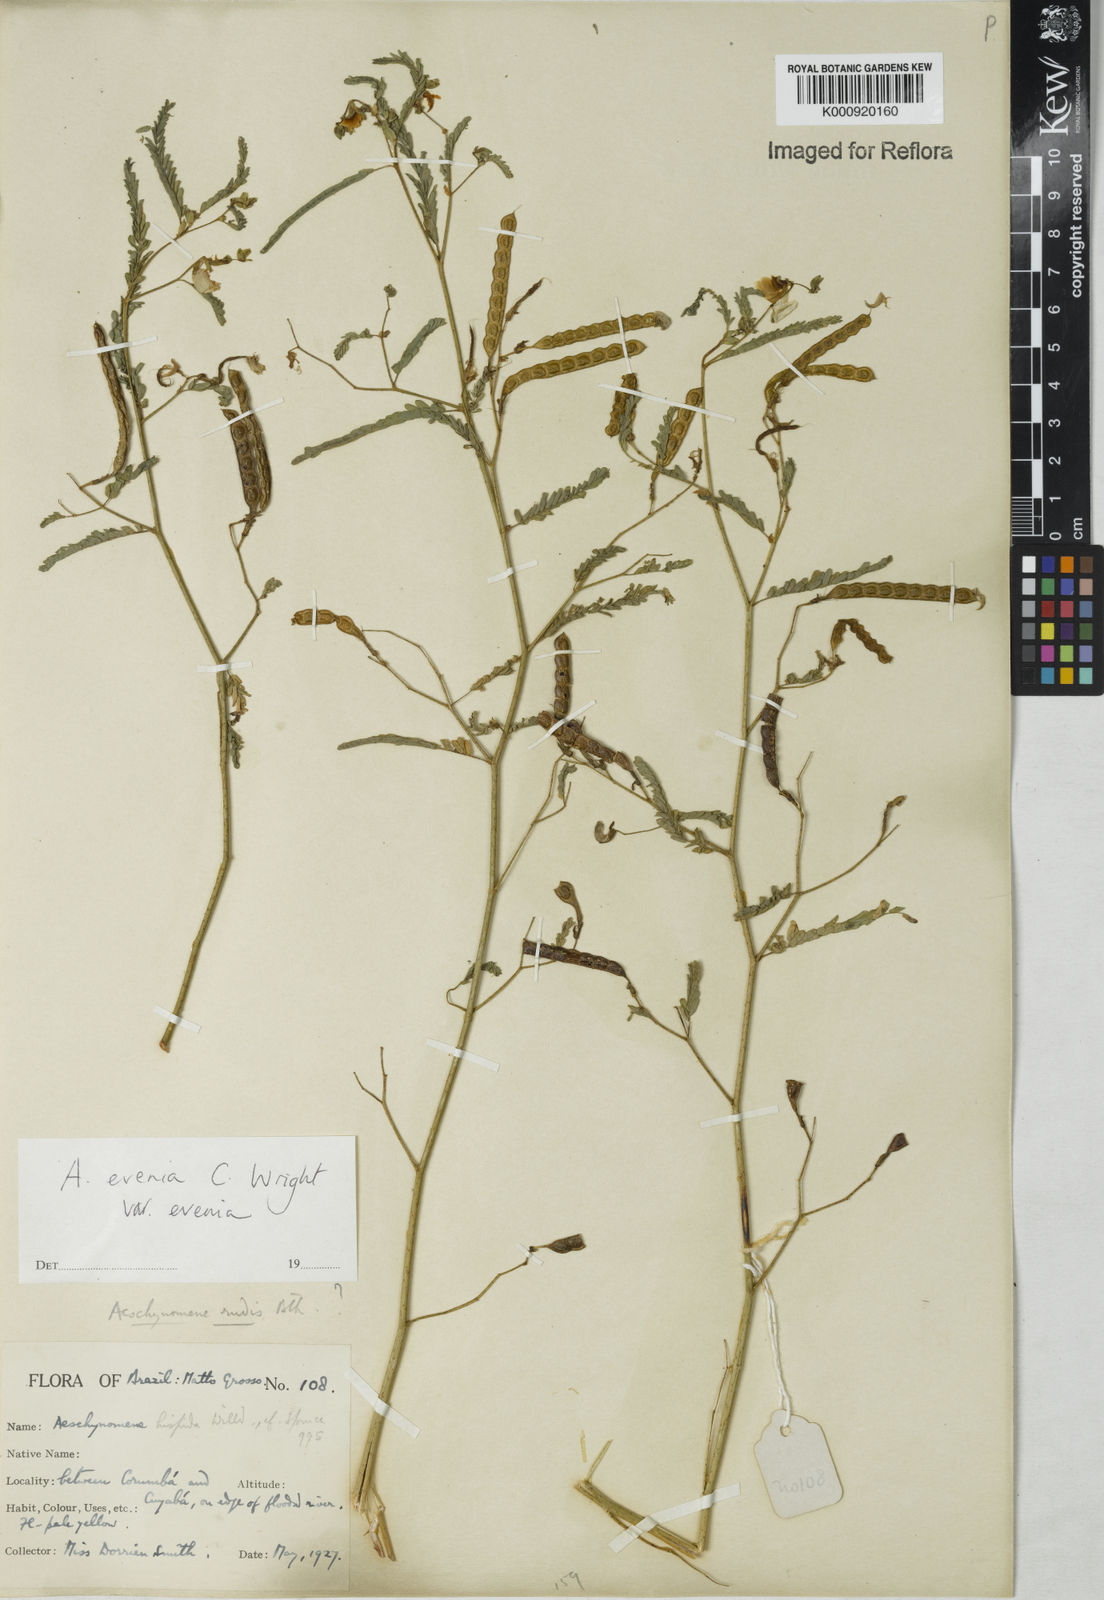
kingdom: Plantae
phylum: Tracheophyta
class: Magnoliopsida
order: Fabales
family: Fabaceae
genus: Aeschynomene
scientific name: Aeschynomene evenia
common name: Shrubby jointvetch
